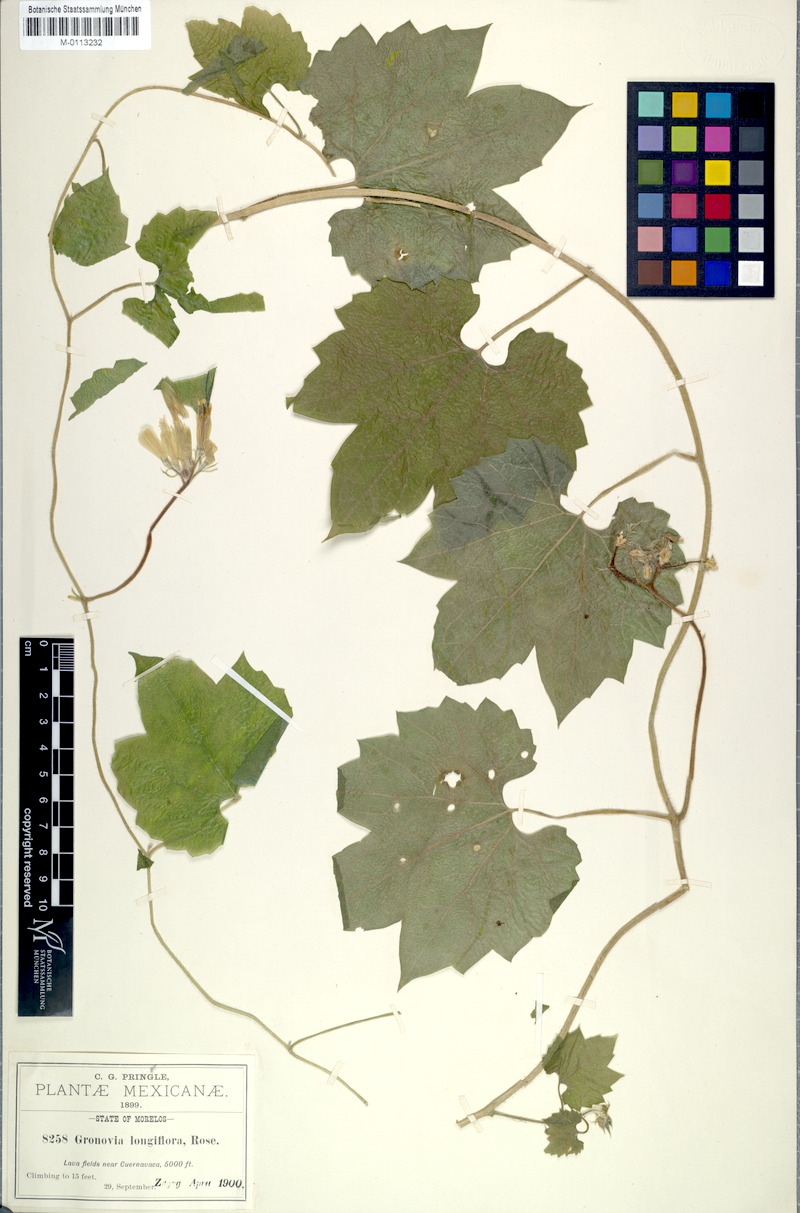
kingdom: Plantae
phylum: Tracheophyta
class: Magnoliopsida
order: Cornales
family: Loasaceae
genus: Gronovia
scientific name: Gronovia longiflora
